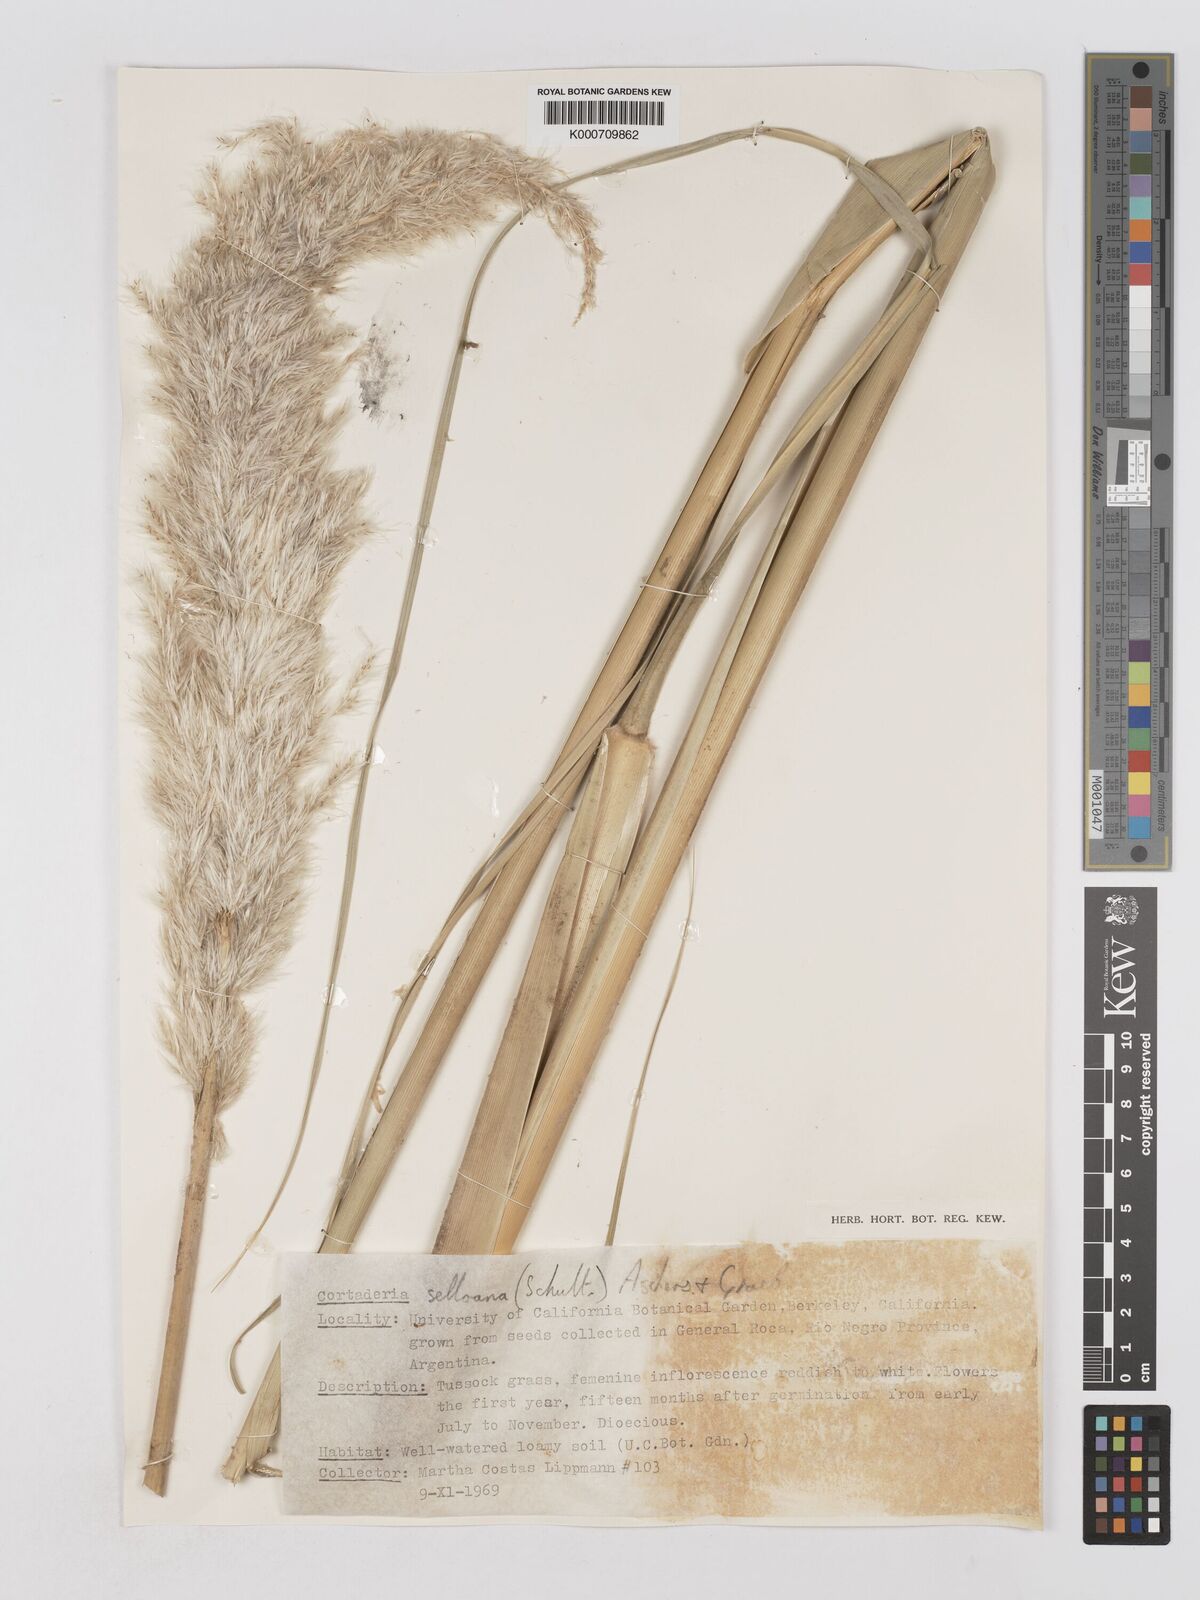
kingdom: Plantae
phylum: Tracheophyta
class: Liliopsida
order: Poales
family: Poaceae
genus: Cortaderia
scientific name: Cortaderia selloana
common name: Uruguayan pampas grass
